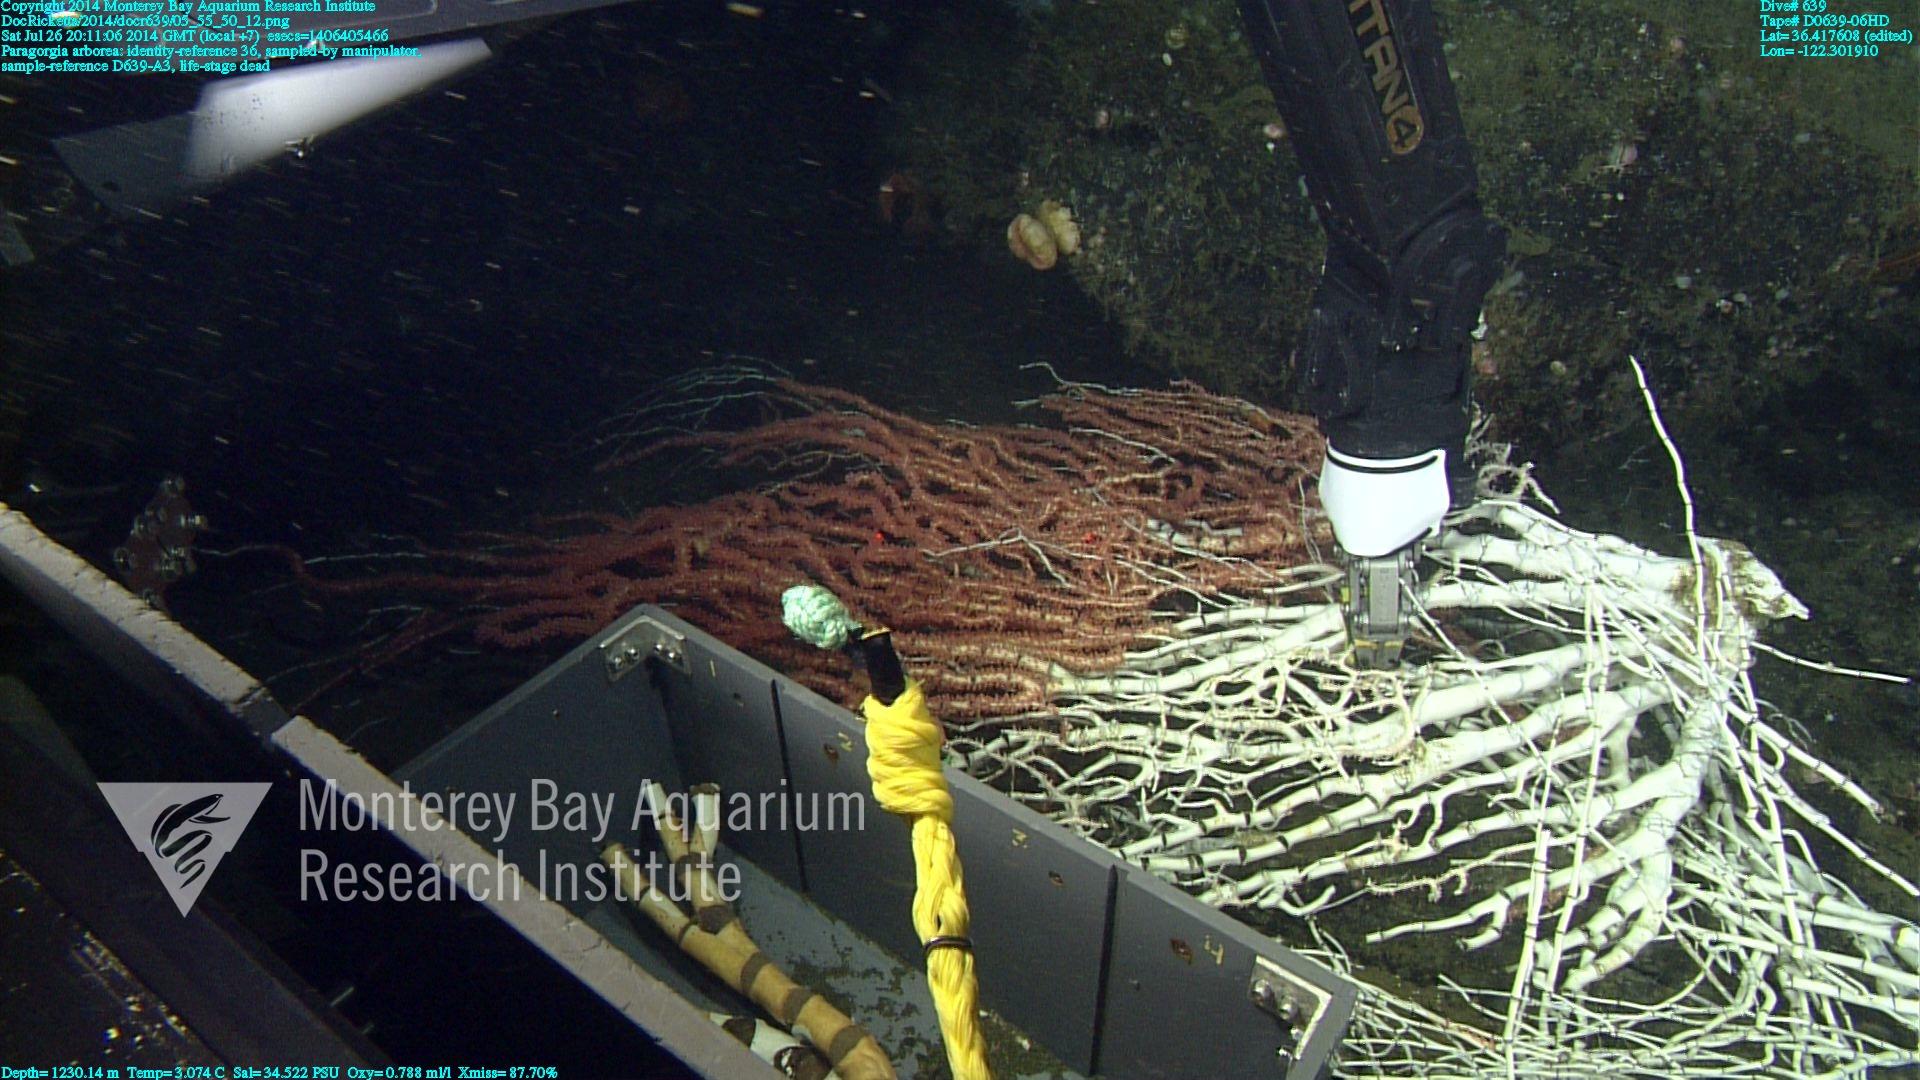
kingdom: Animalia
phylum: Cnidaria
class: Anthozoa
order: Scleralcyonacea
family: Coralliidae
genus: Paragorgia
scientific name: Paragorgia arborea
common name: Bubble gum coral
